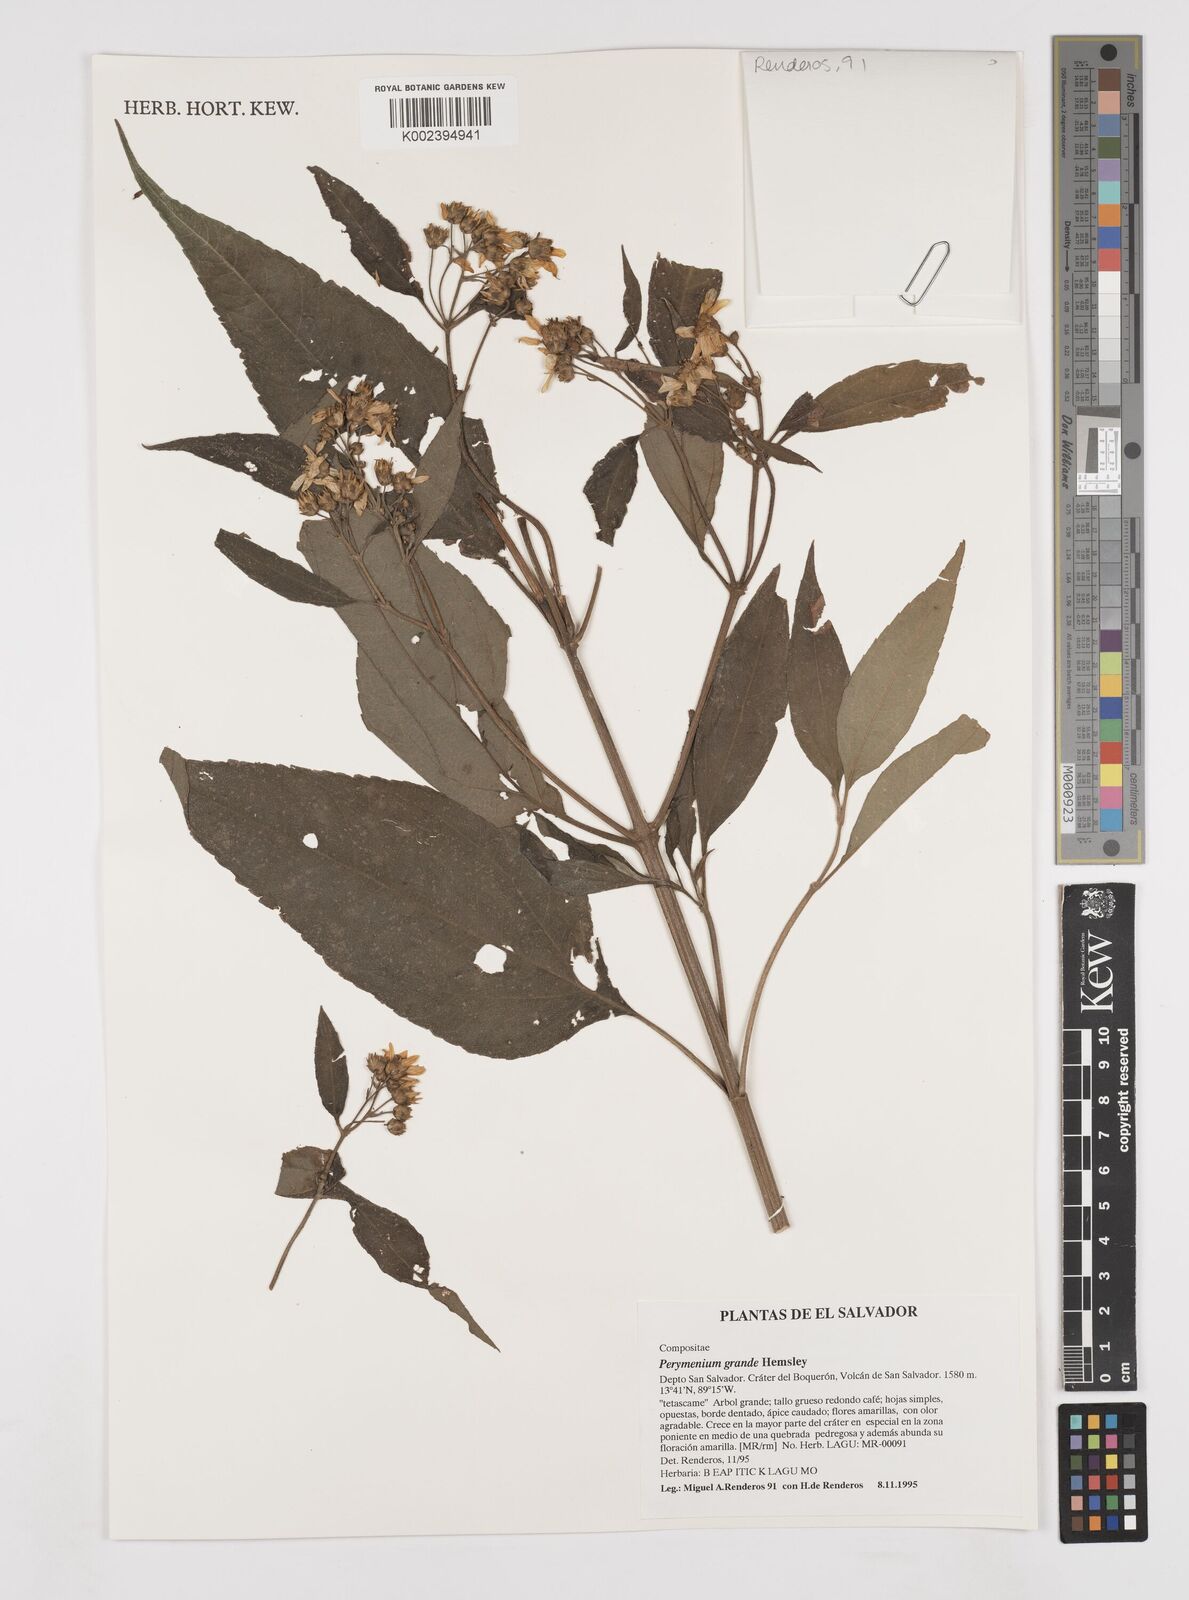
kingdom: Plantae
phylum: Tracheophyta
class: Magnoliopsida
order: Asterales
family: Asteraceae
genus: Perymenium
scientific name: Perymenium grande
